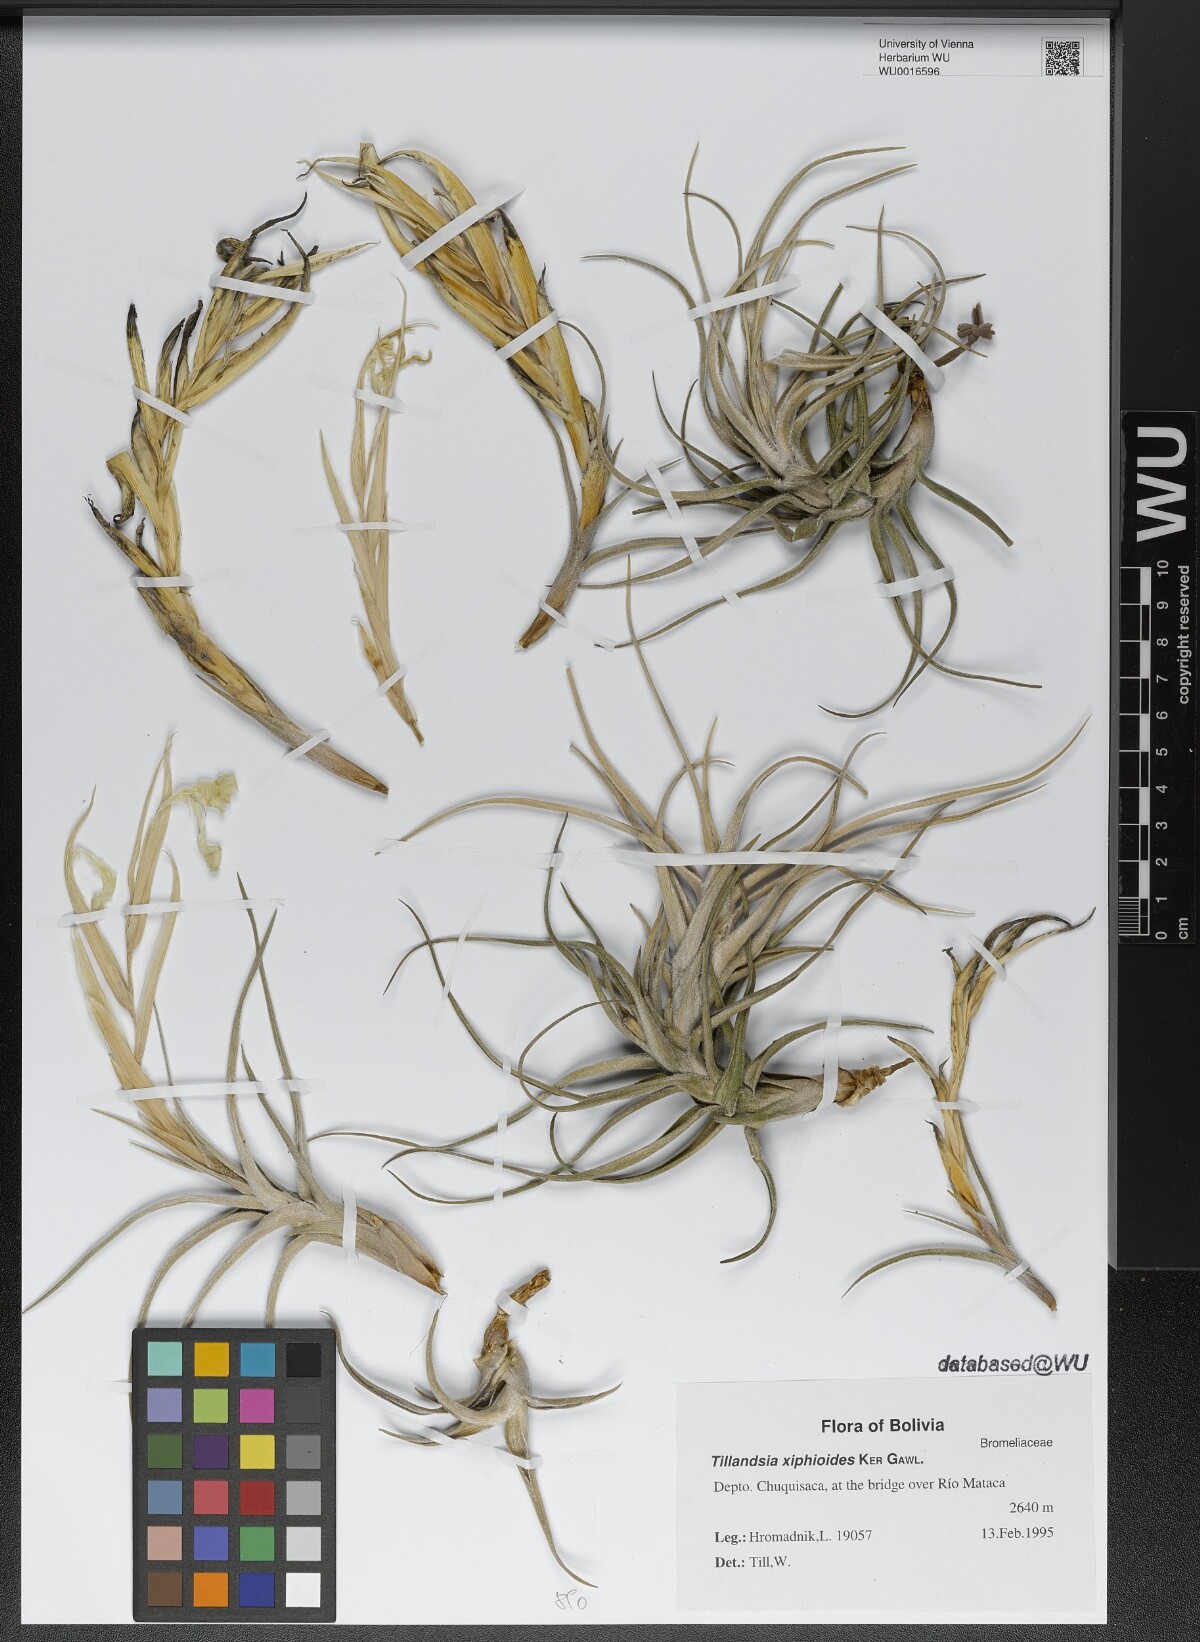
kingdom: Plantae
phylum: Tracheophyta
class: Liliopsida
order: Poales
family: Bromeliaceae
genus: Tillandsia
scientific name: Tillandsia xiphioides
